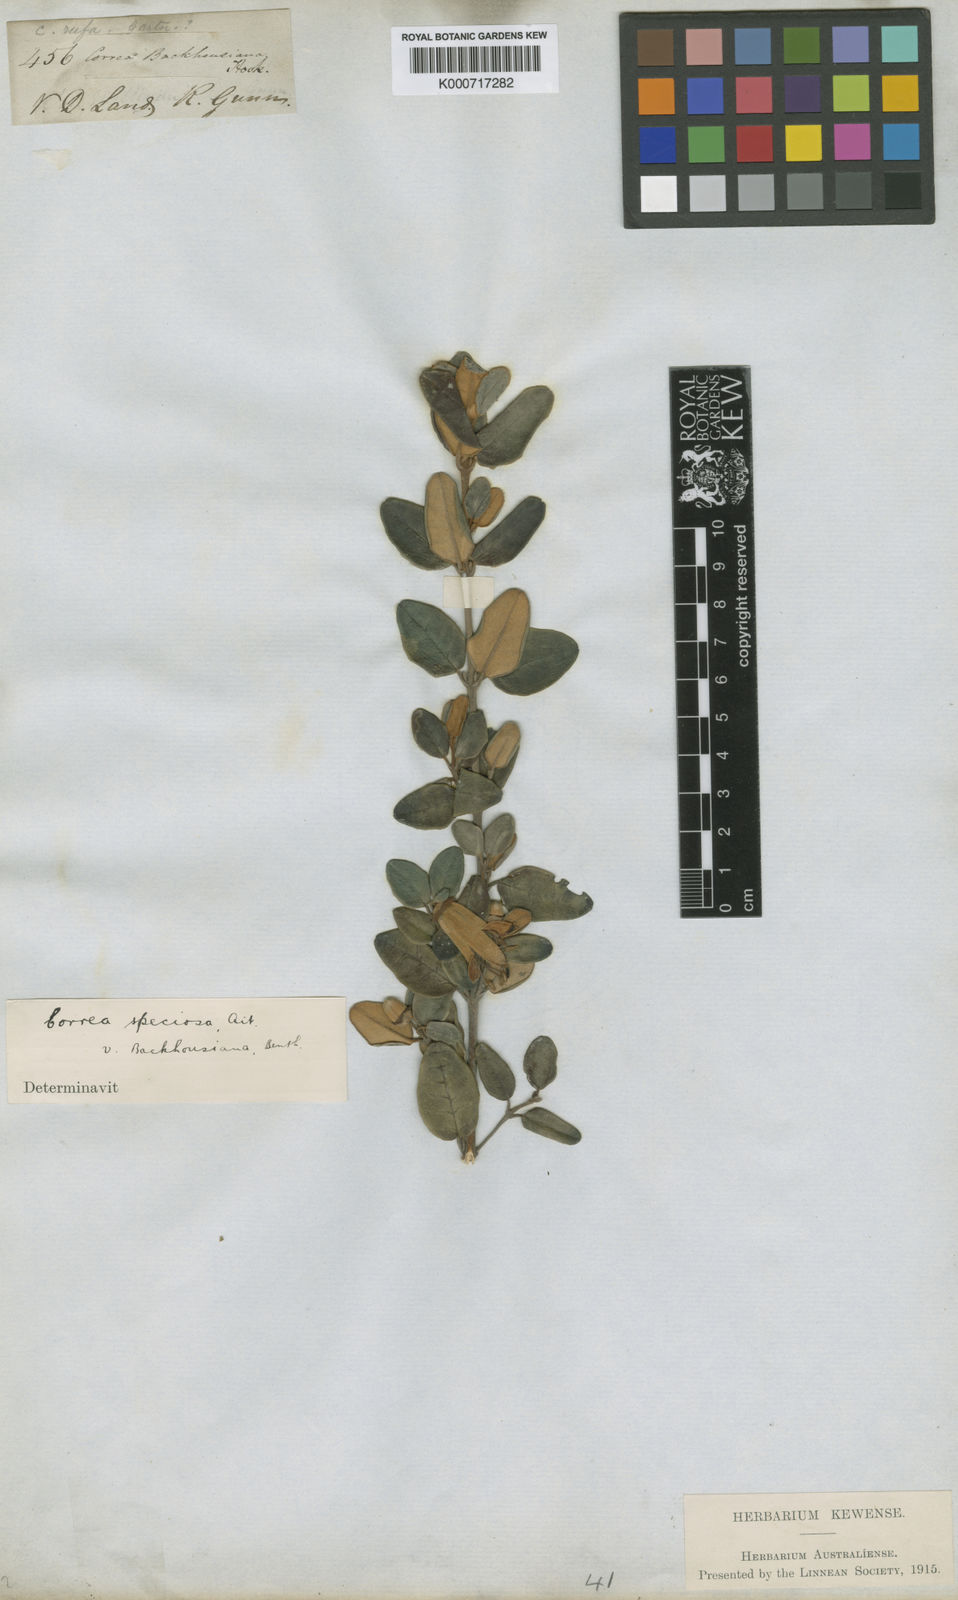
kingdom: Plantae
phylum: Tracheophyta
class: Magnoliopsida
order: Sapindales
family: Rutaceae
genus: Correa
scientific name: Correa
